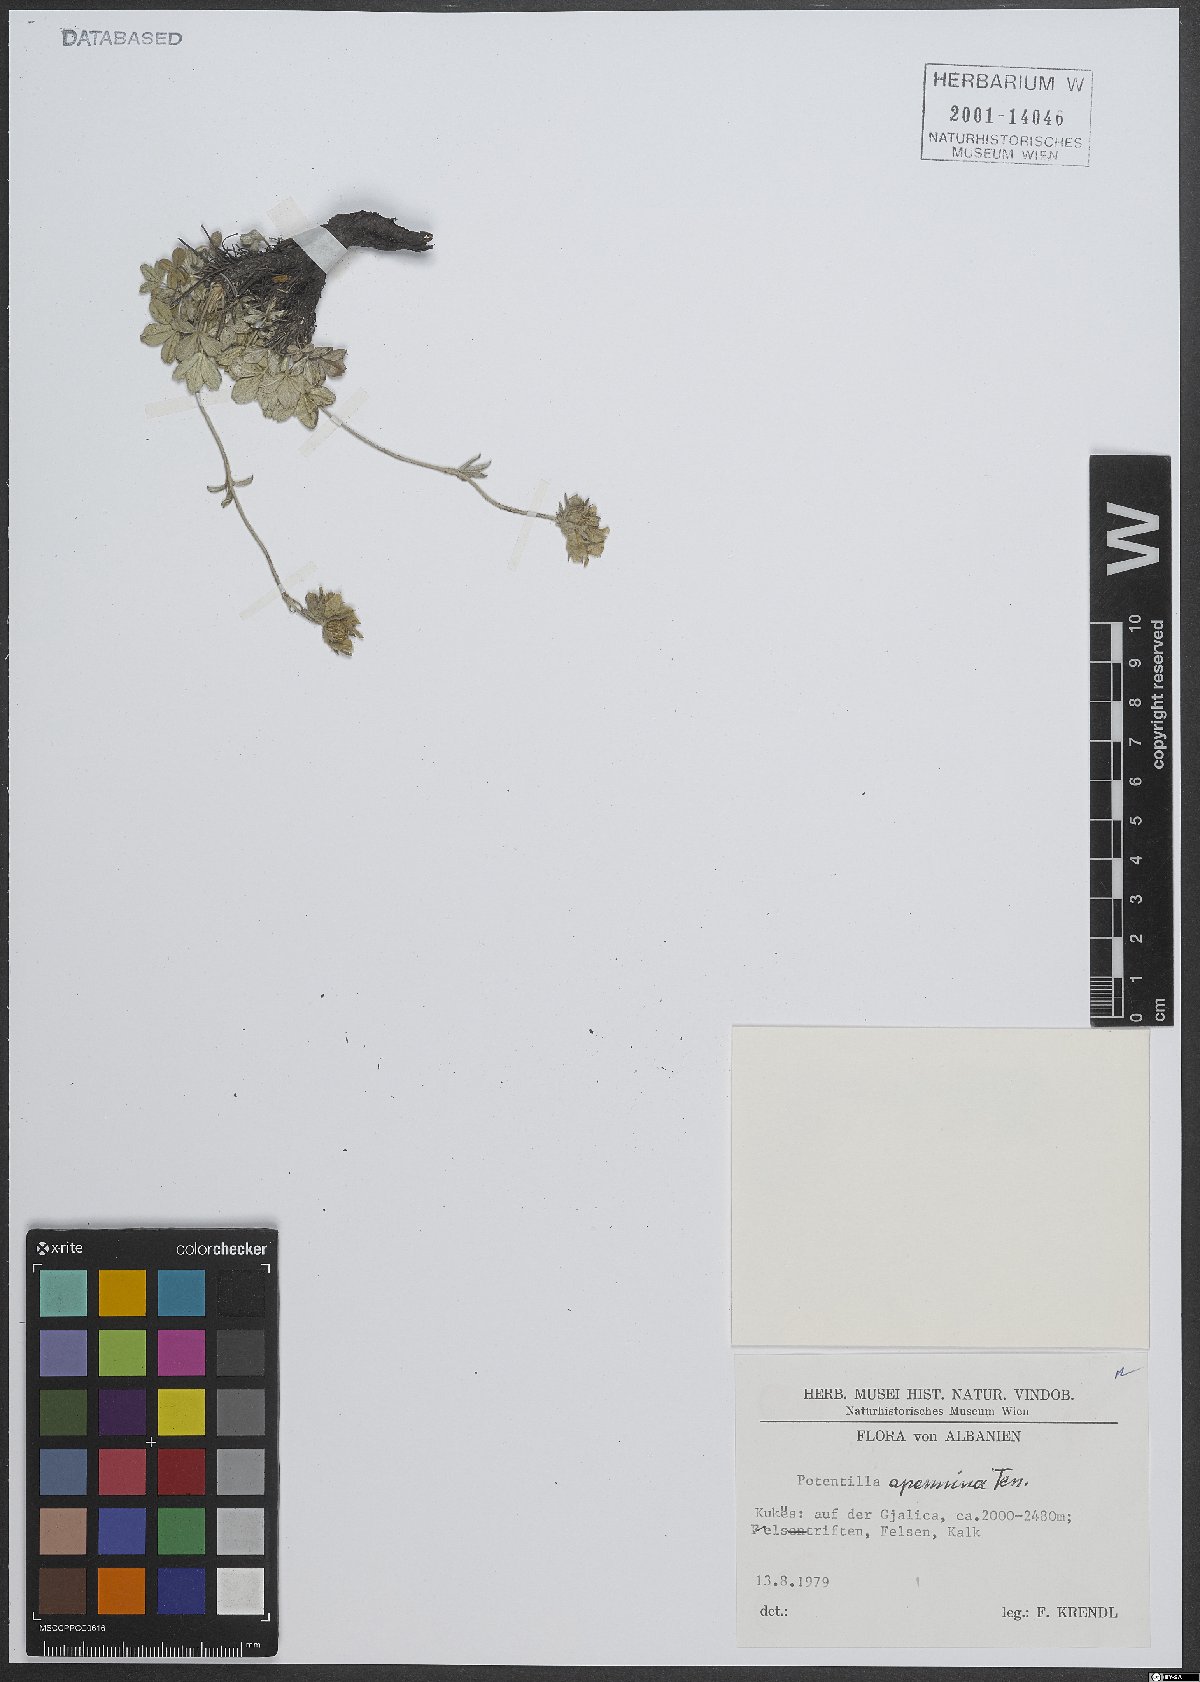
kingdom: Plantae
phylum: Tracheophyta
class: Magnoliopsida
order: Rosales
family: Rosaceae
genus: Potentilla
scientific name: Potentilla apennina
